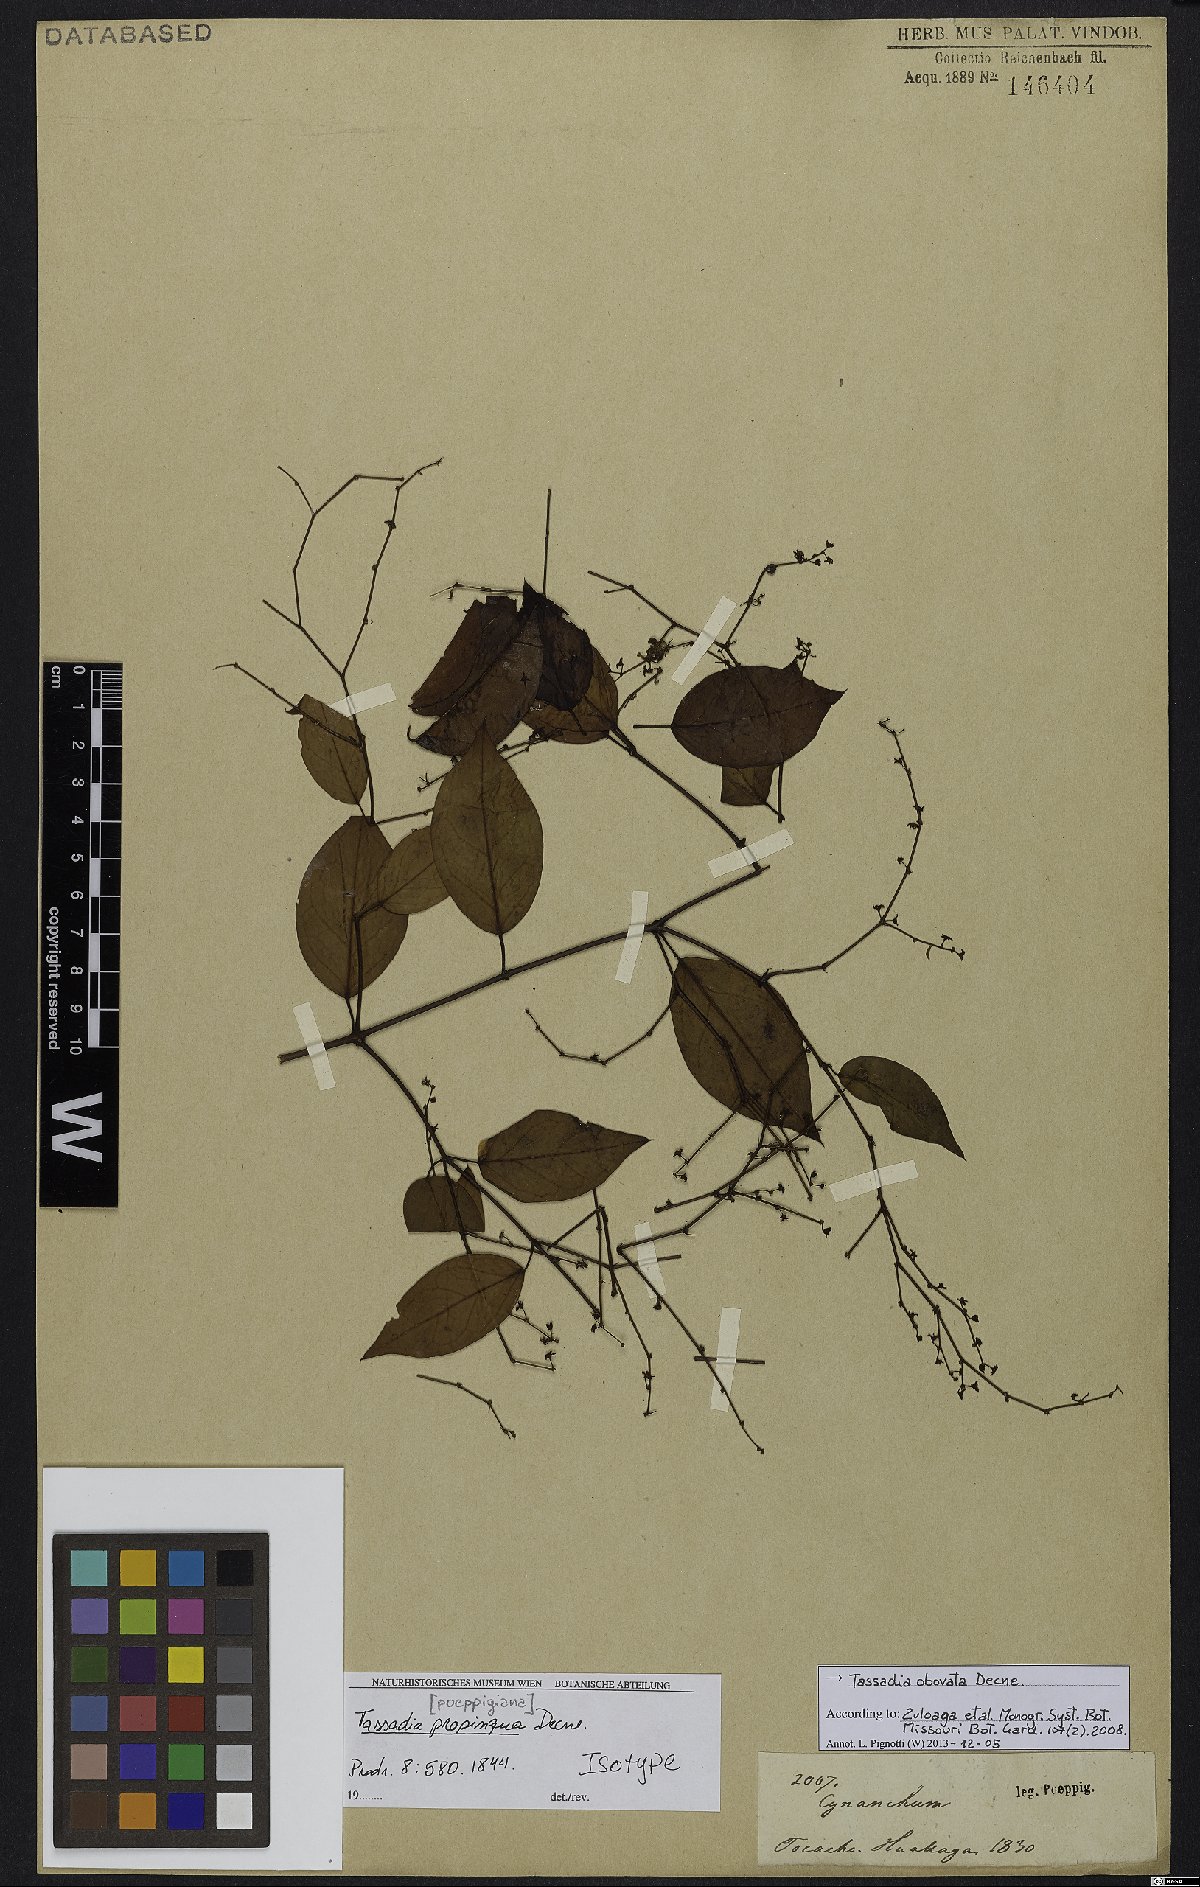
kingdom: Plantae
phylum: Tracheophyta
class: Magnoliopsida
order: Gentianales
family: Apocynaceae
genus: Tassadia
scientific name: Tassadia obovata
